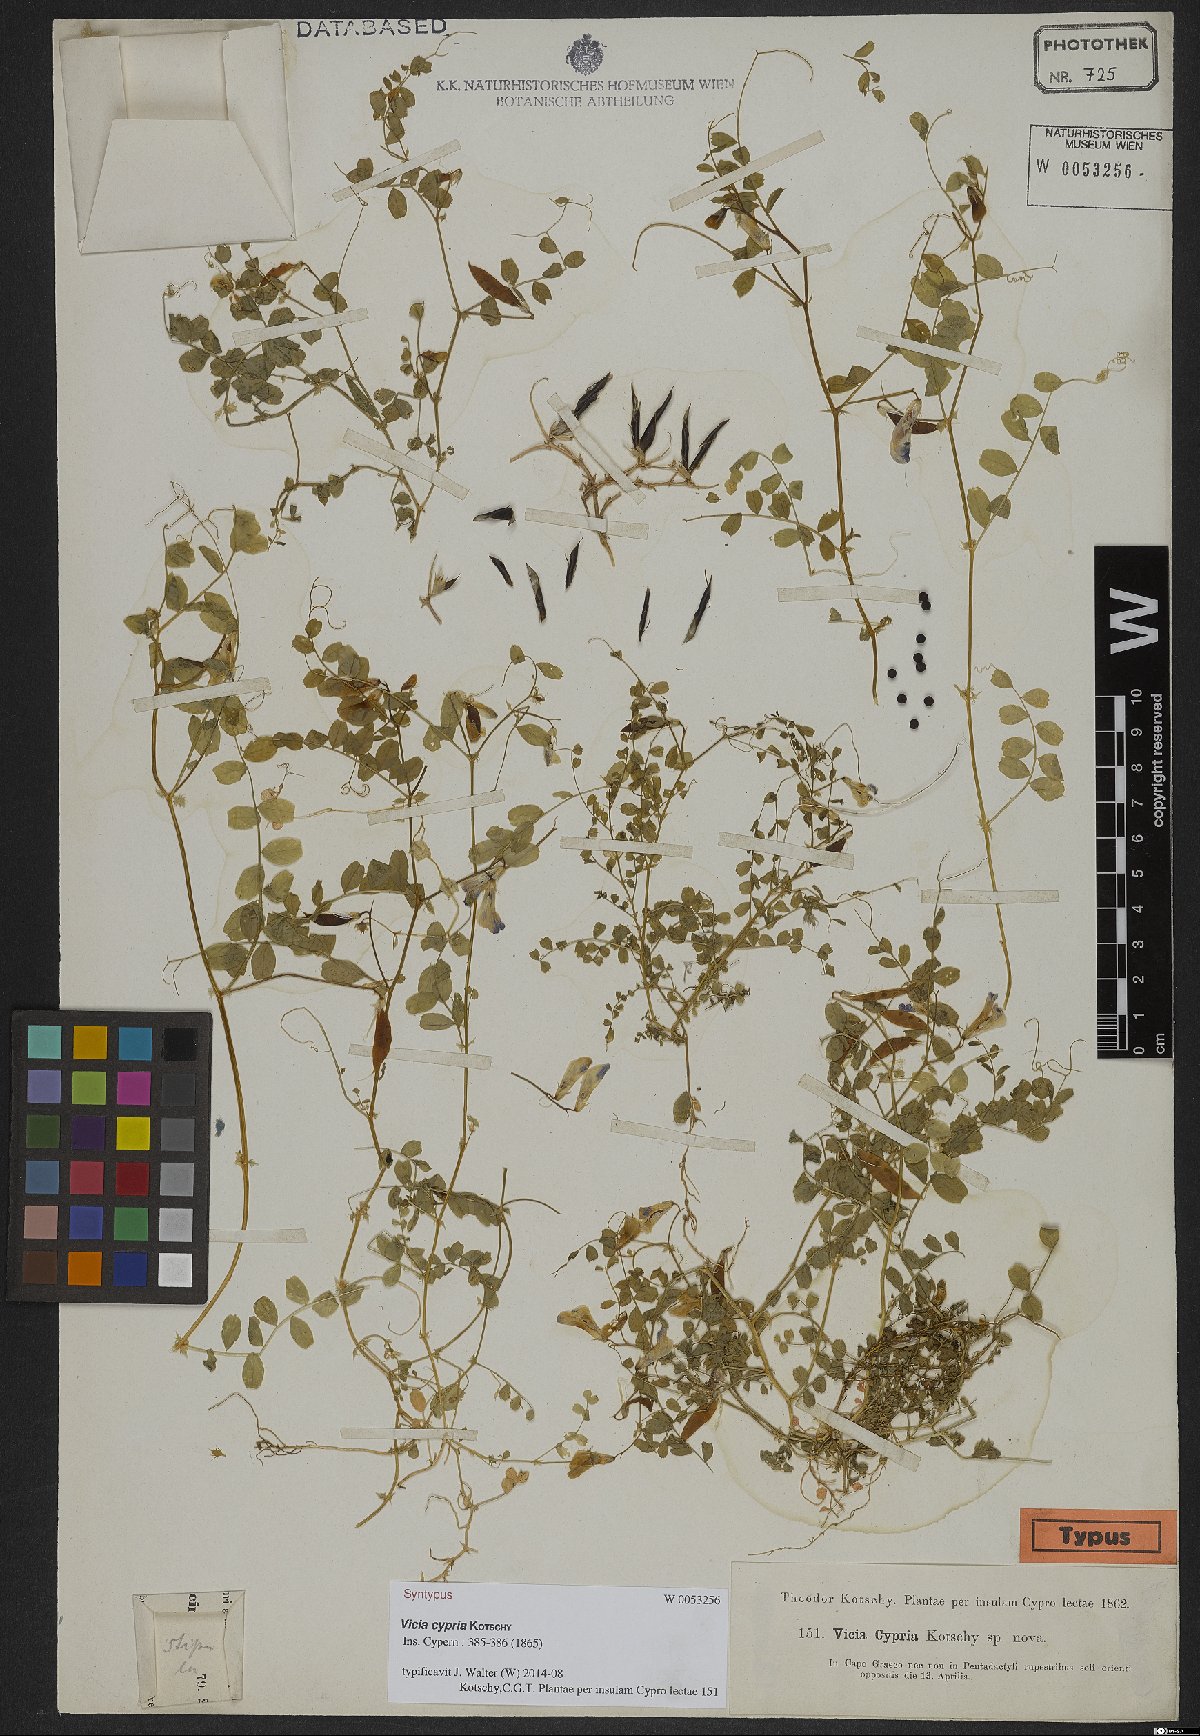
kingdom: Plantae
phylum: Tracheophyta
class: Magnoliopsida
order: Fabales
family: Fabaceae
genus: Vicia
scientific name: Vicia cypria
